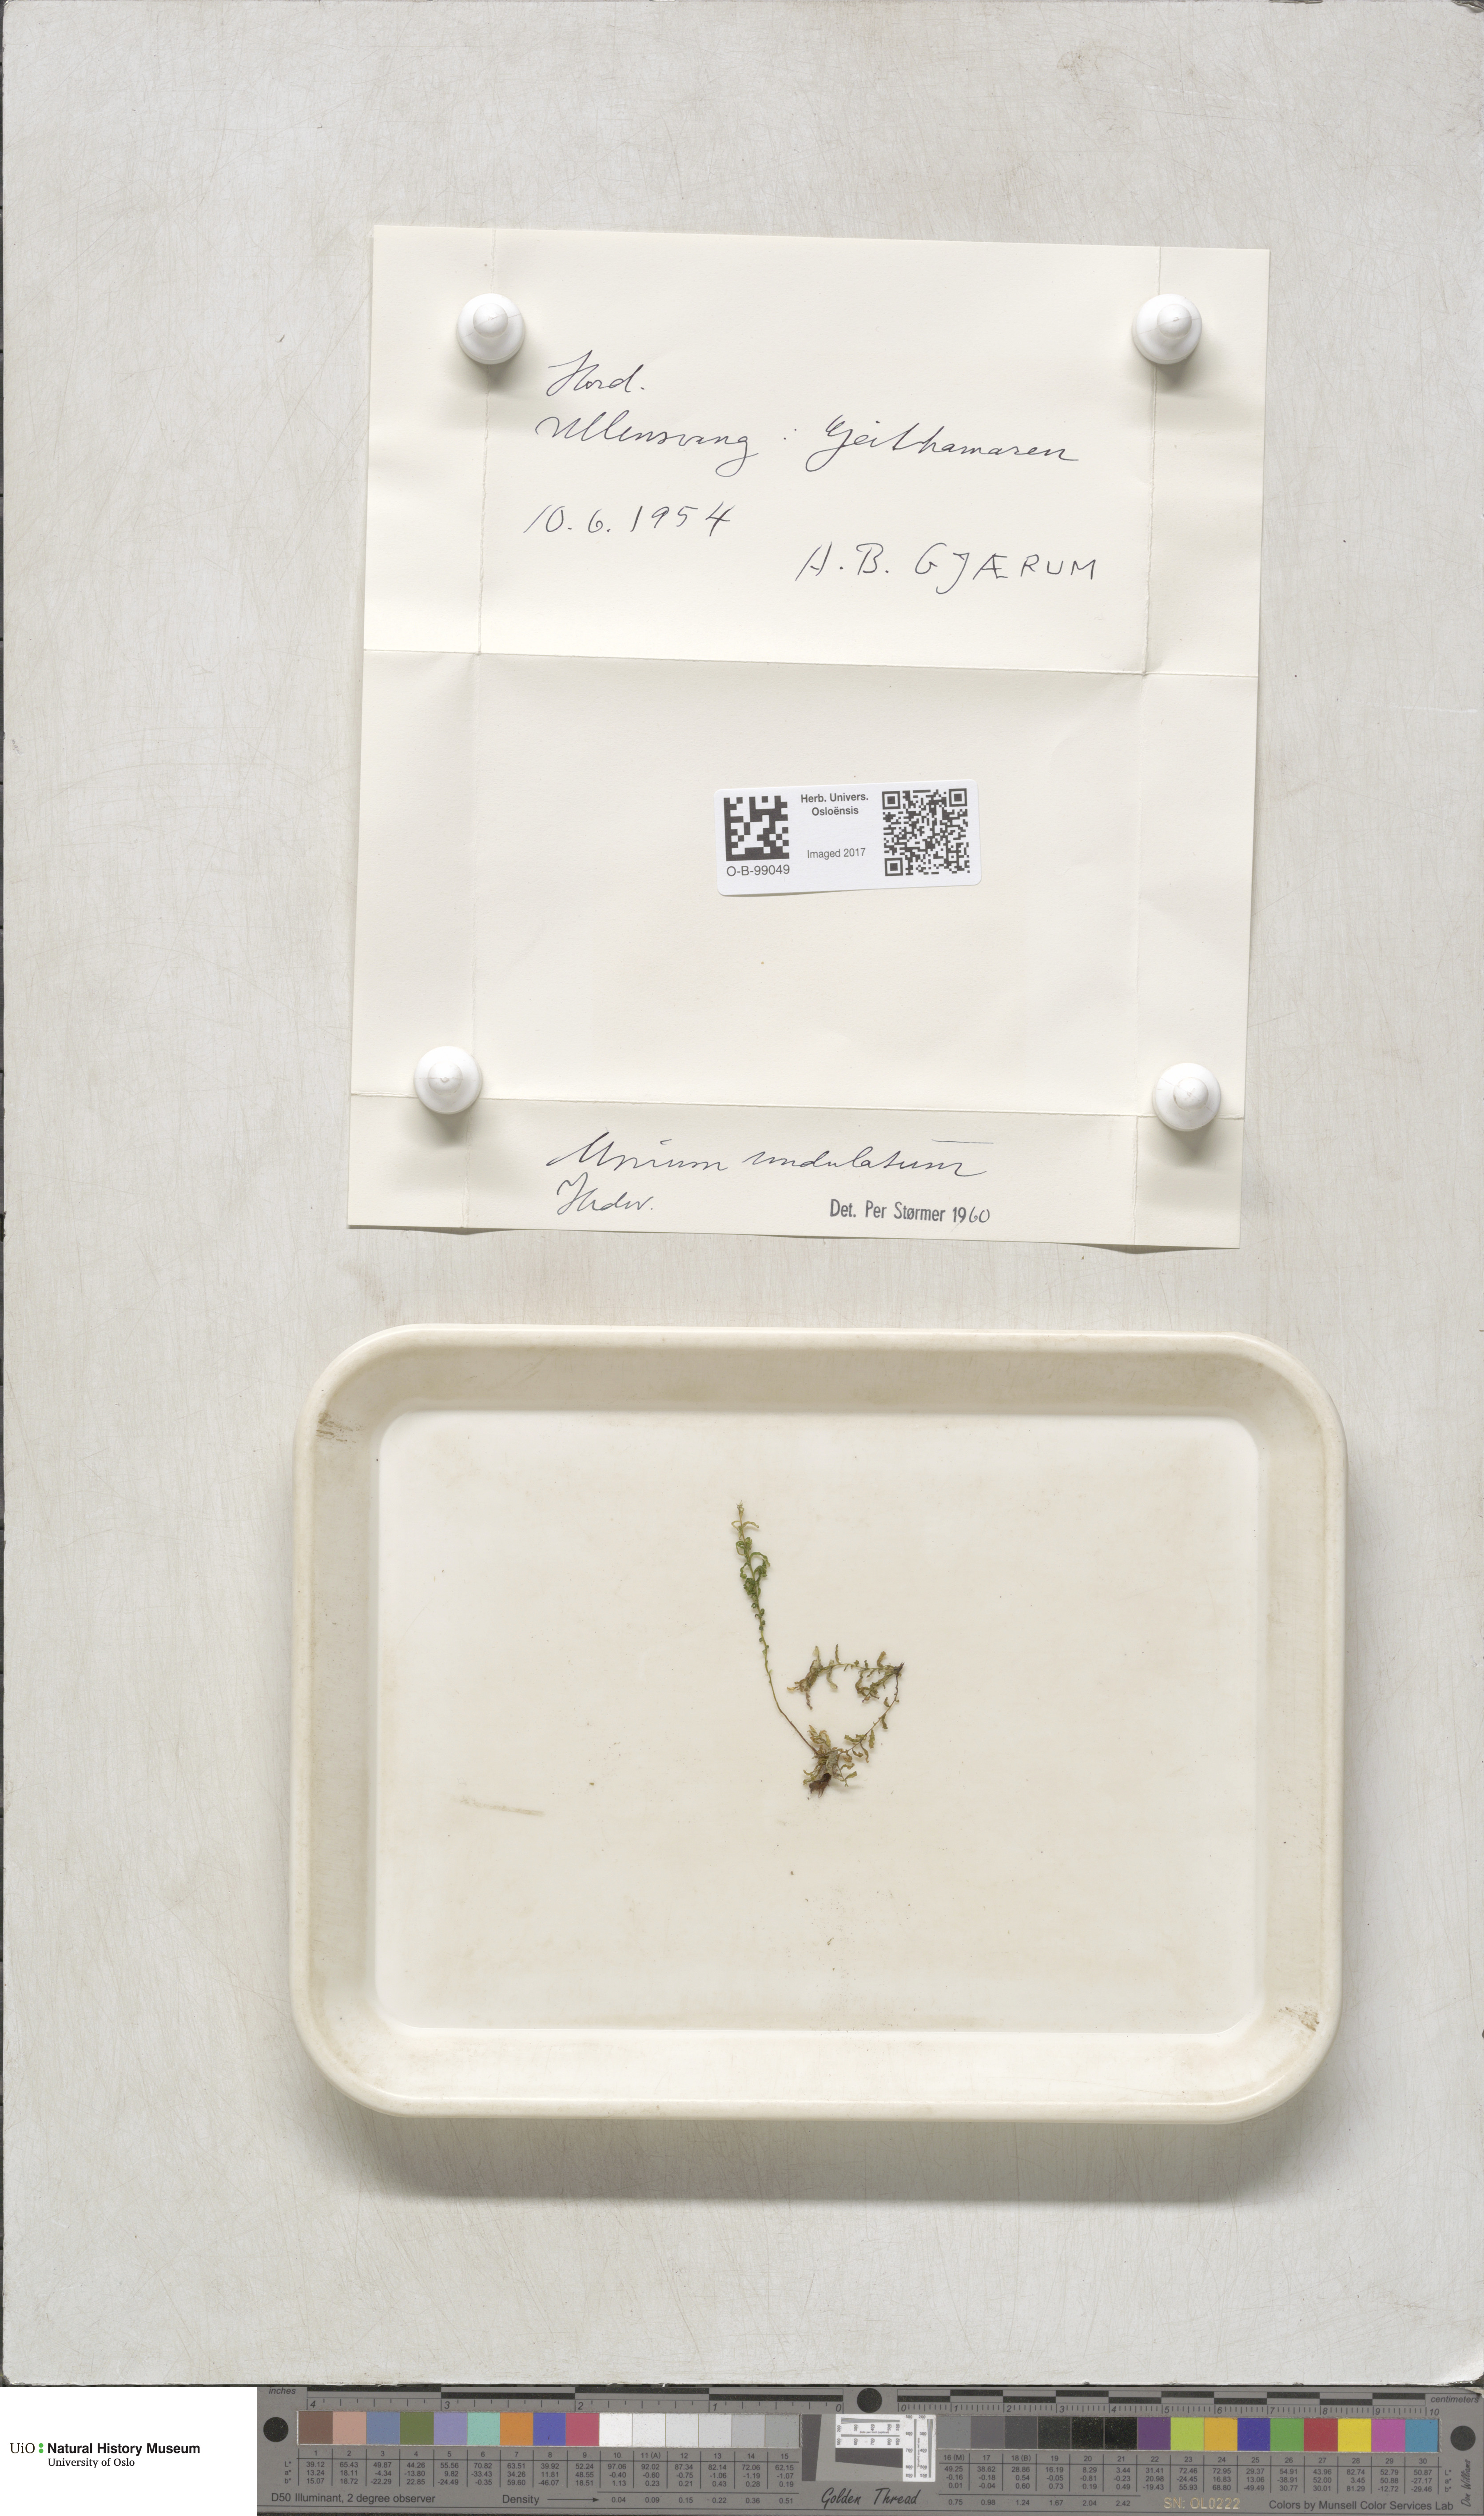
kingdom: Plantae
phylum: Bryophyta
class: Bryopsida
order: Bryales
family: Mniaceae
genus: Plagiomnium
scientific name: Plagiomnium undulatum
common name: Hart's-tongue thyme-moss
